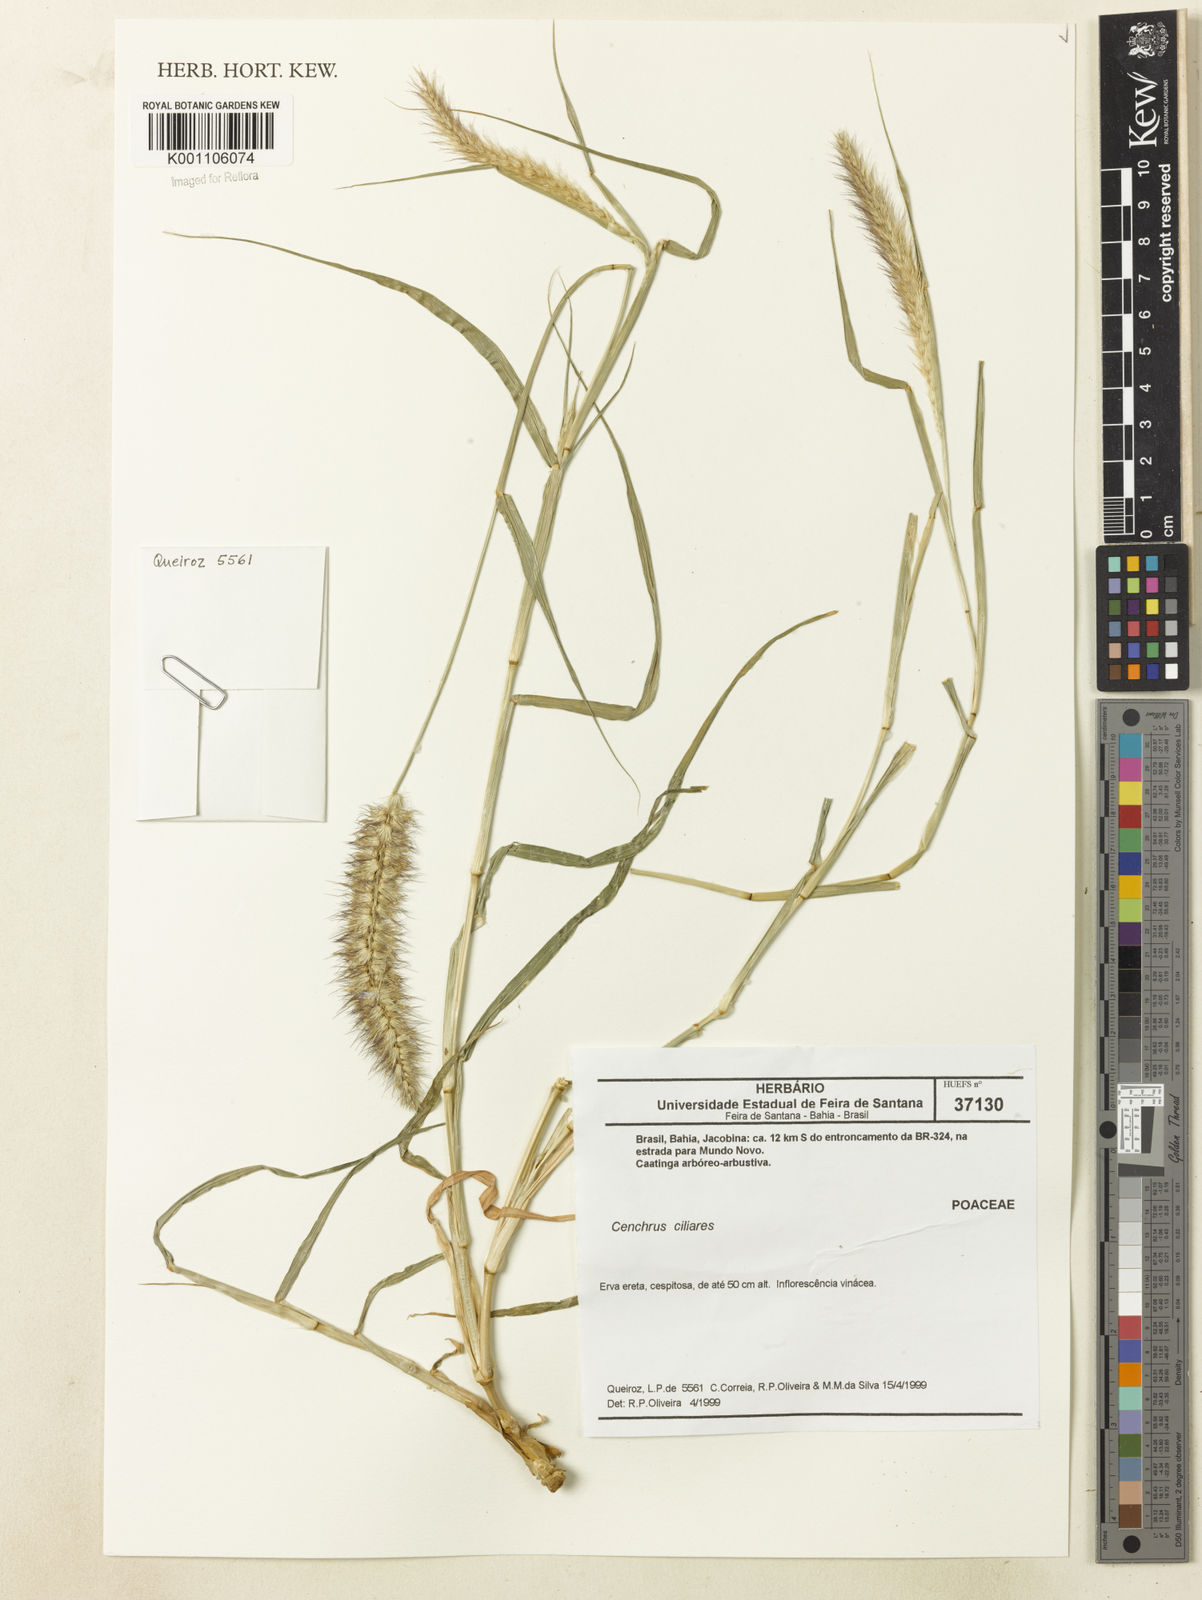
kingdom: Plantae
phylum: Tracheophyta
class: Liliopsida
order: Poales
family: Poaceae
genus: Cenchrus
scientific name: Cenchrus ciliaris
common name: Buffelgrass
